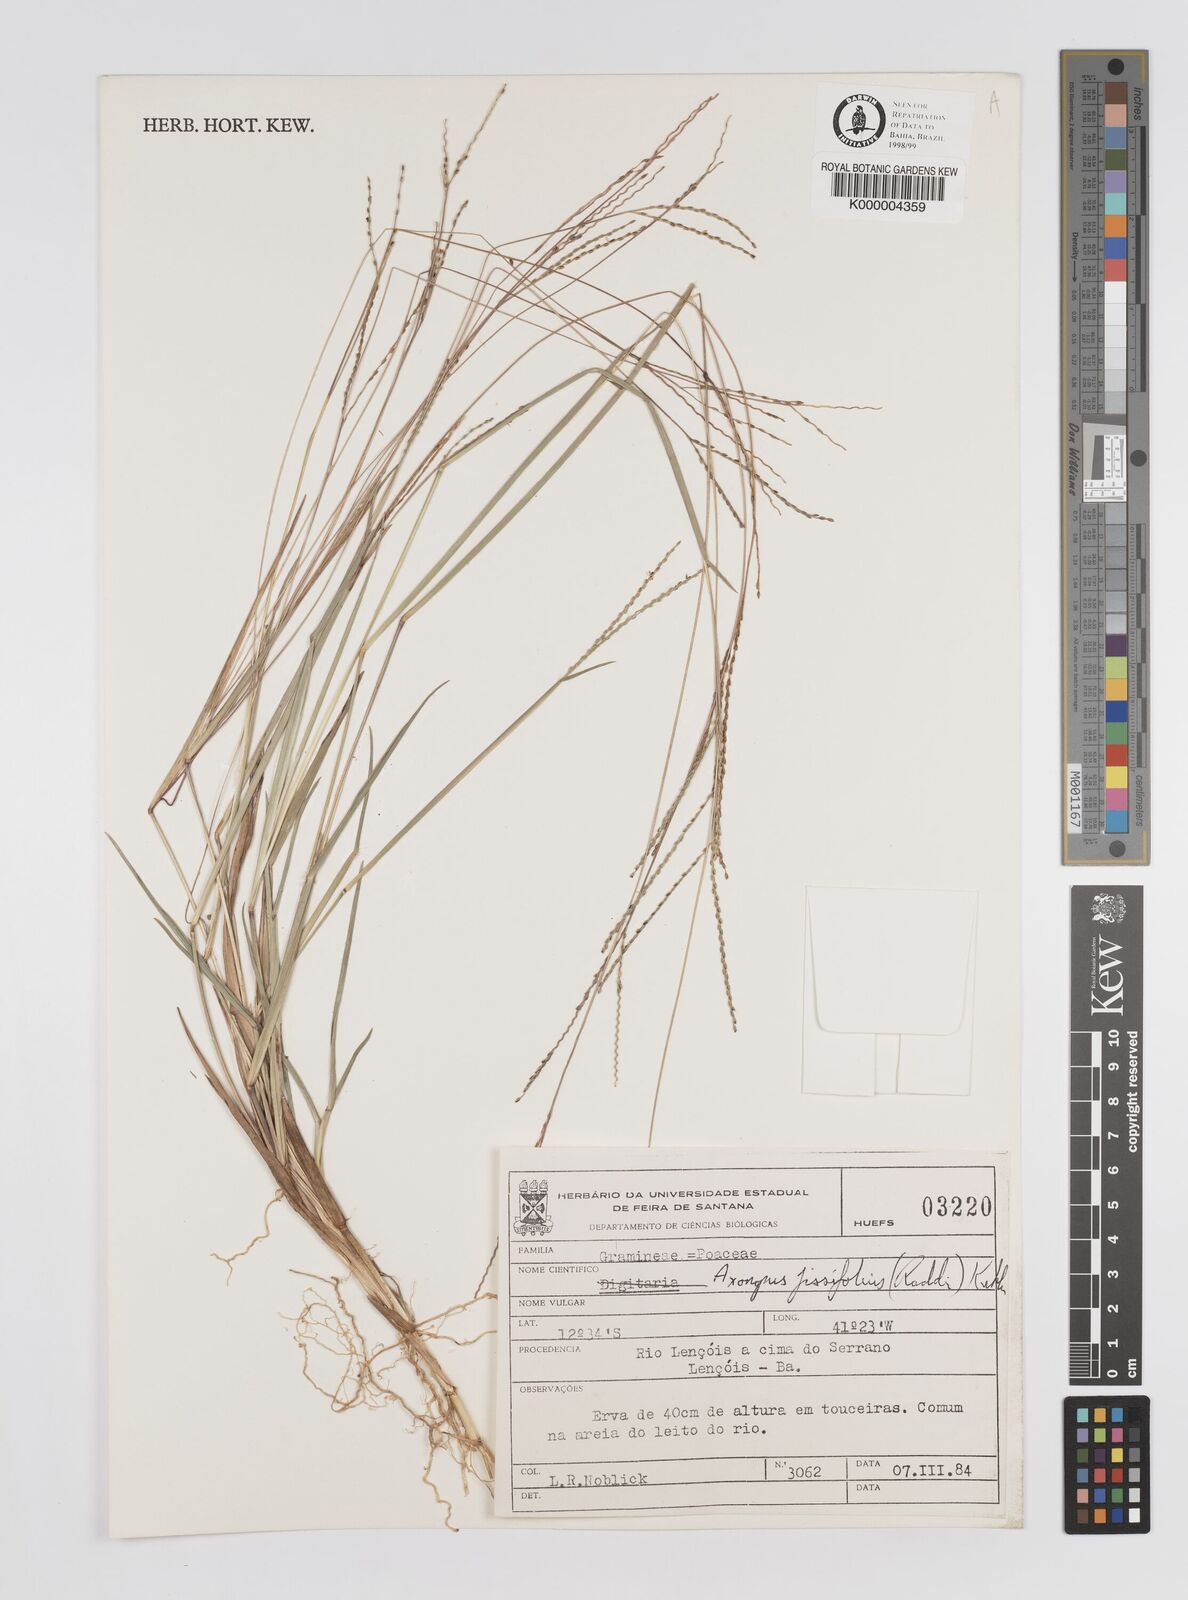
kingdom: Plantae
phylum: Tracheophyta
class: Liliopsida
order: Poales
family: Poaceae
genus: Axonopus
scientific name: Axonopus fissifolius
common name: Common carpetgrass
